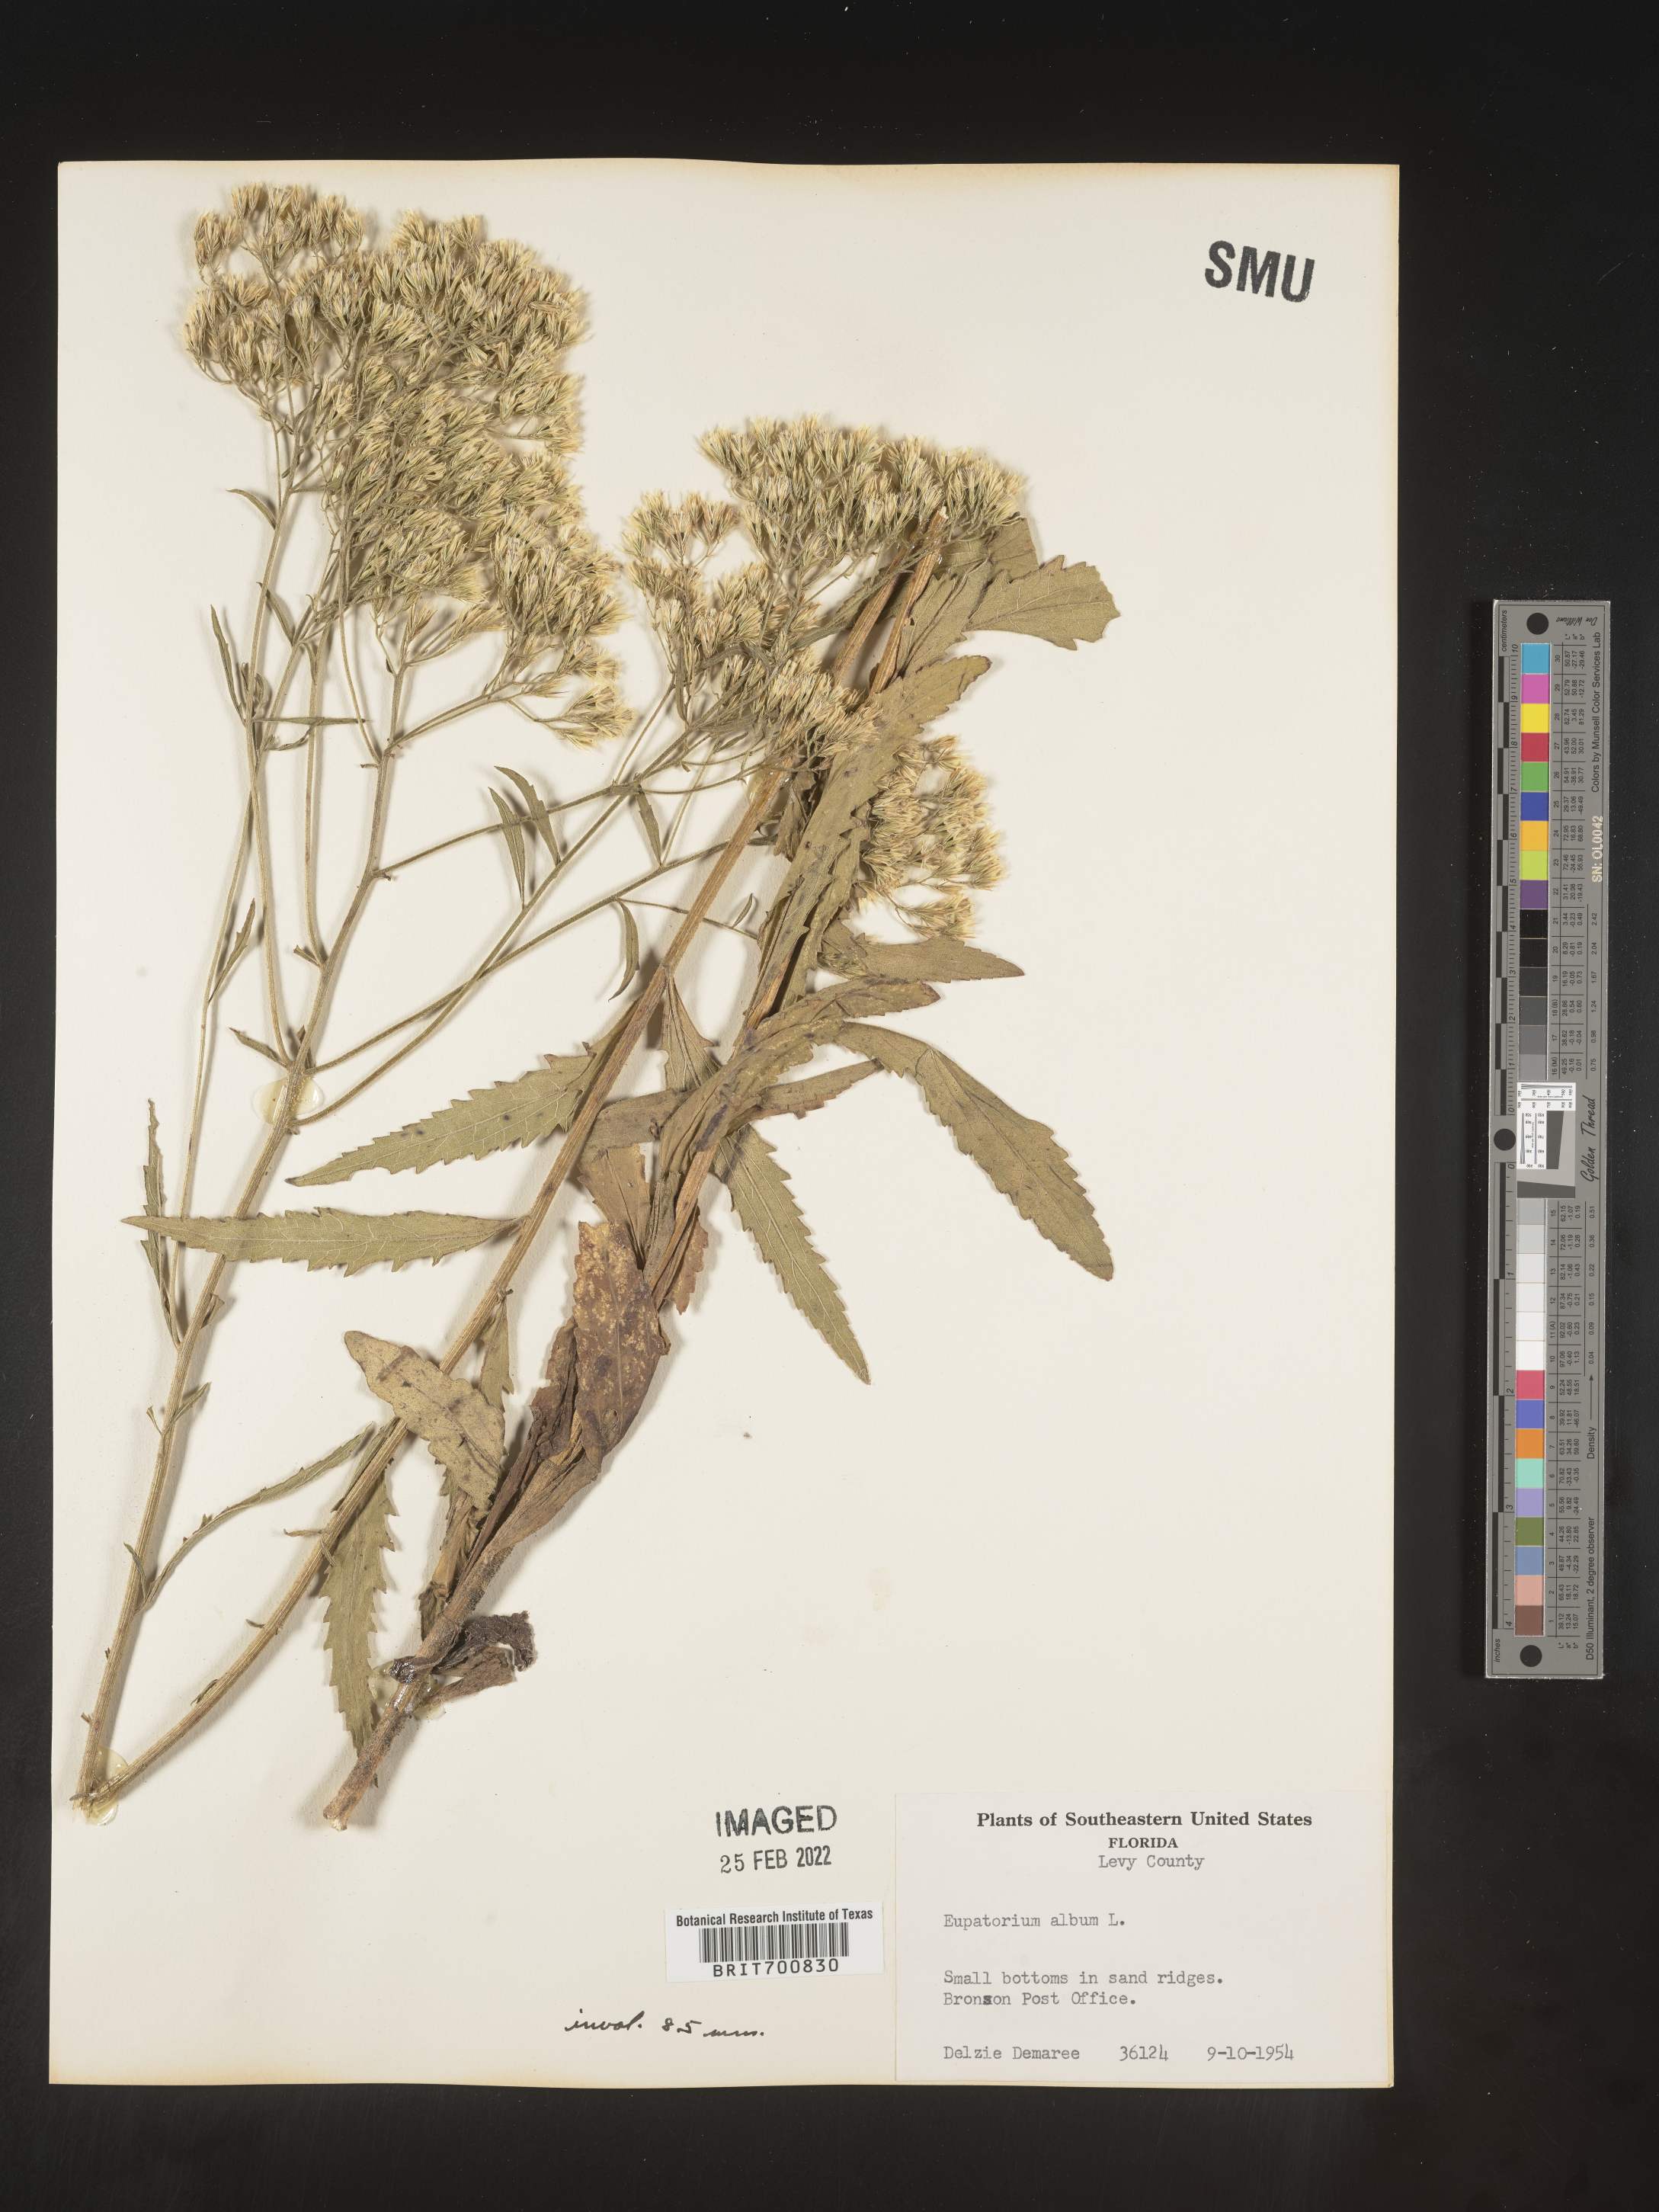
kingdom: Plantae
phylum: Tracheophyta
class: Magnoliopsida
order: Asterales
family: Asteraceae
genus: Eupatorium
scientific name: Eupatorium album
